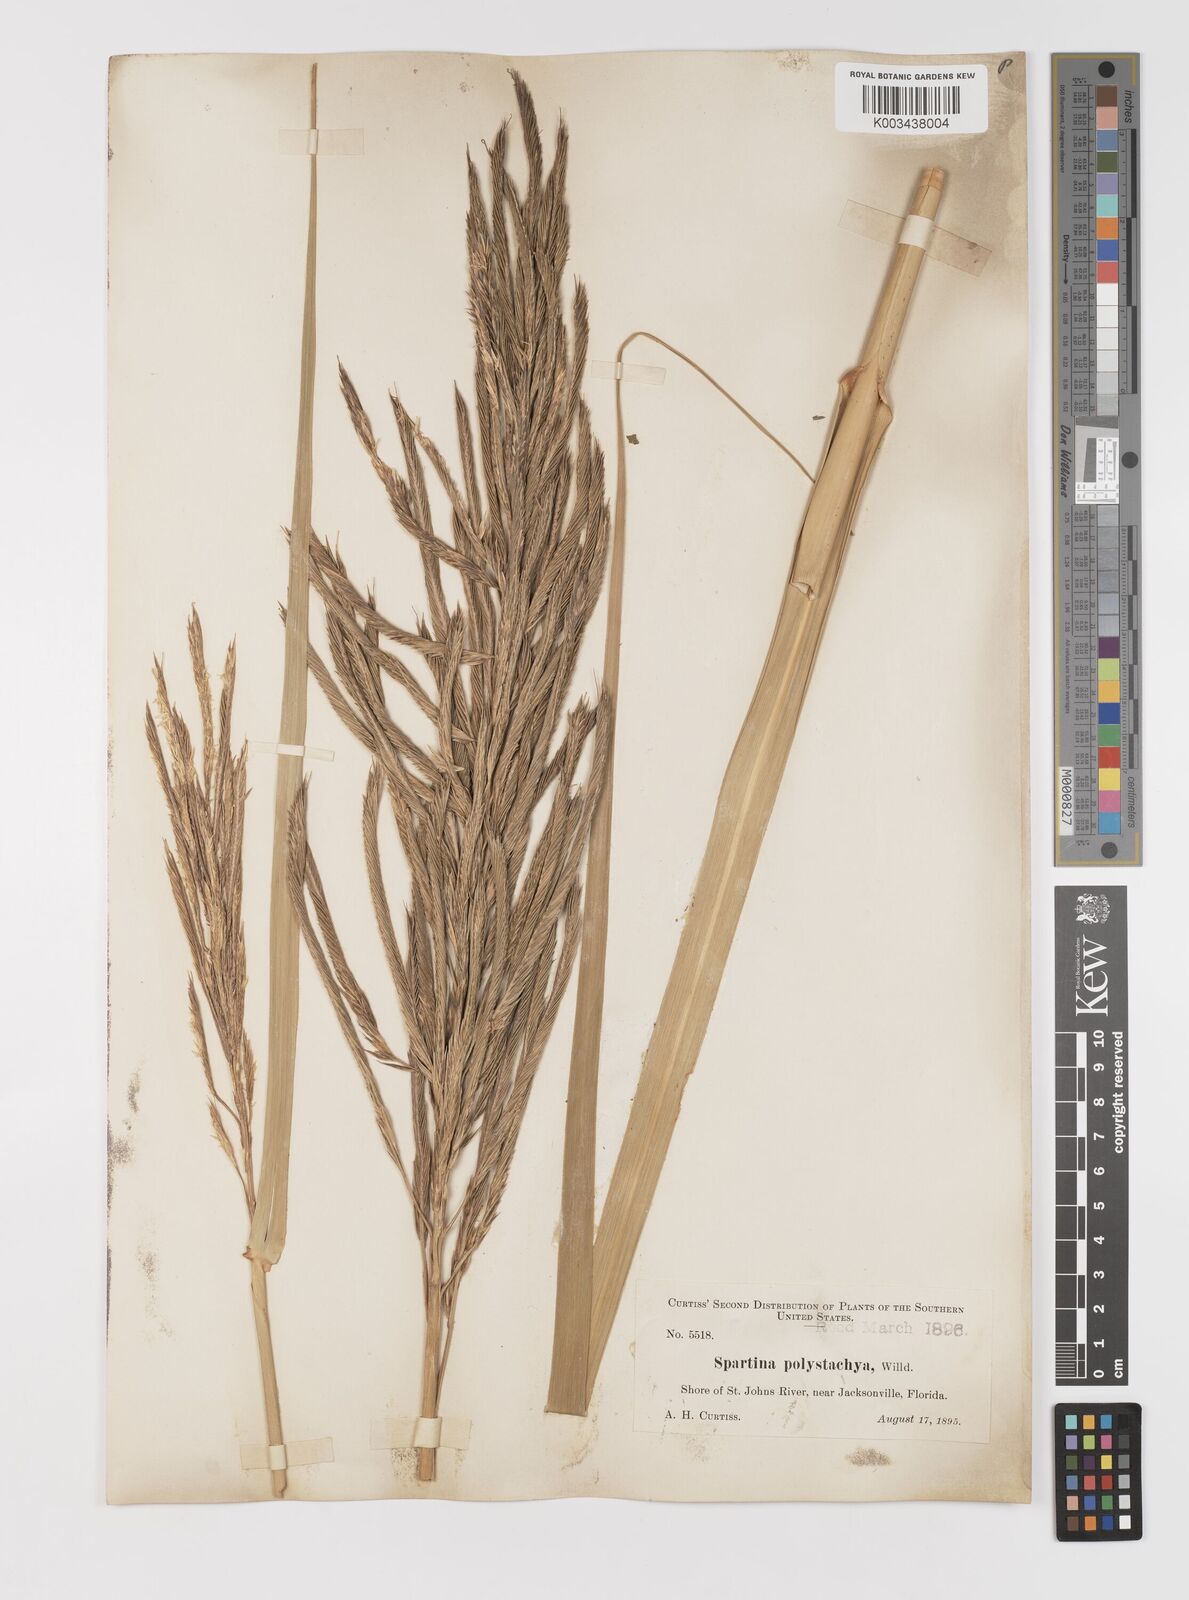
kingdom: Plantae
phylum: Tracheophyta
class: Liliopsida
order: Poales
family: Poaceae
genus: Sporobolus
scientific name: Sporobolus cynosuroides
